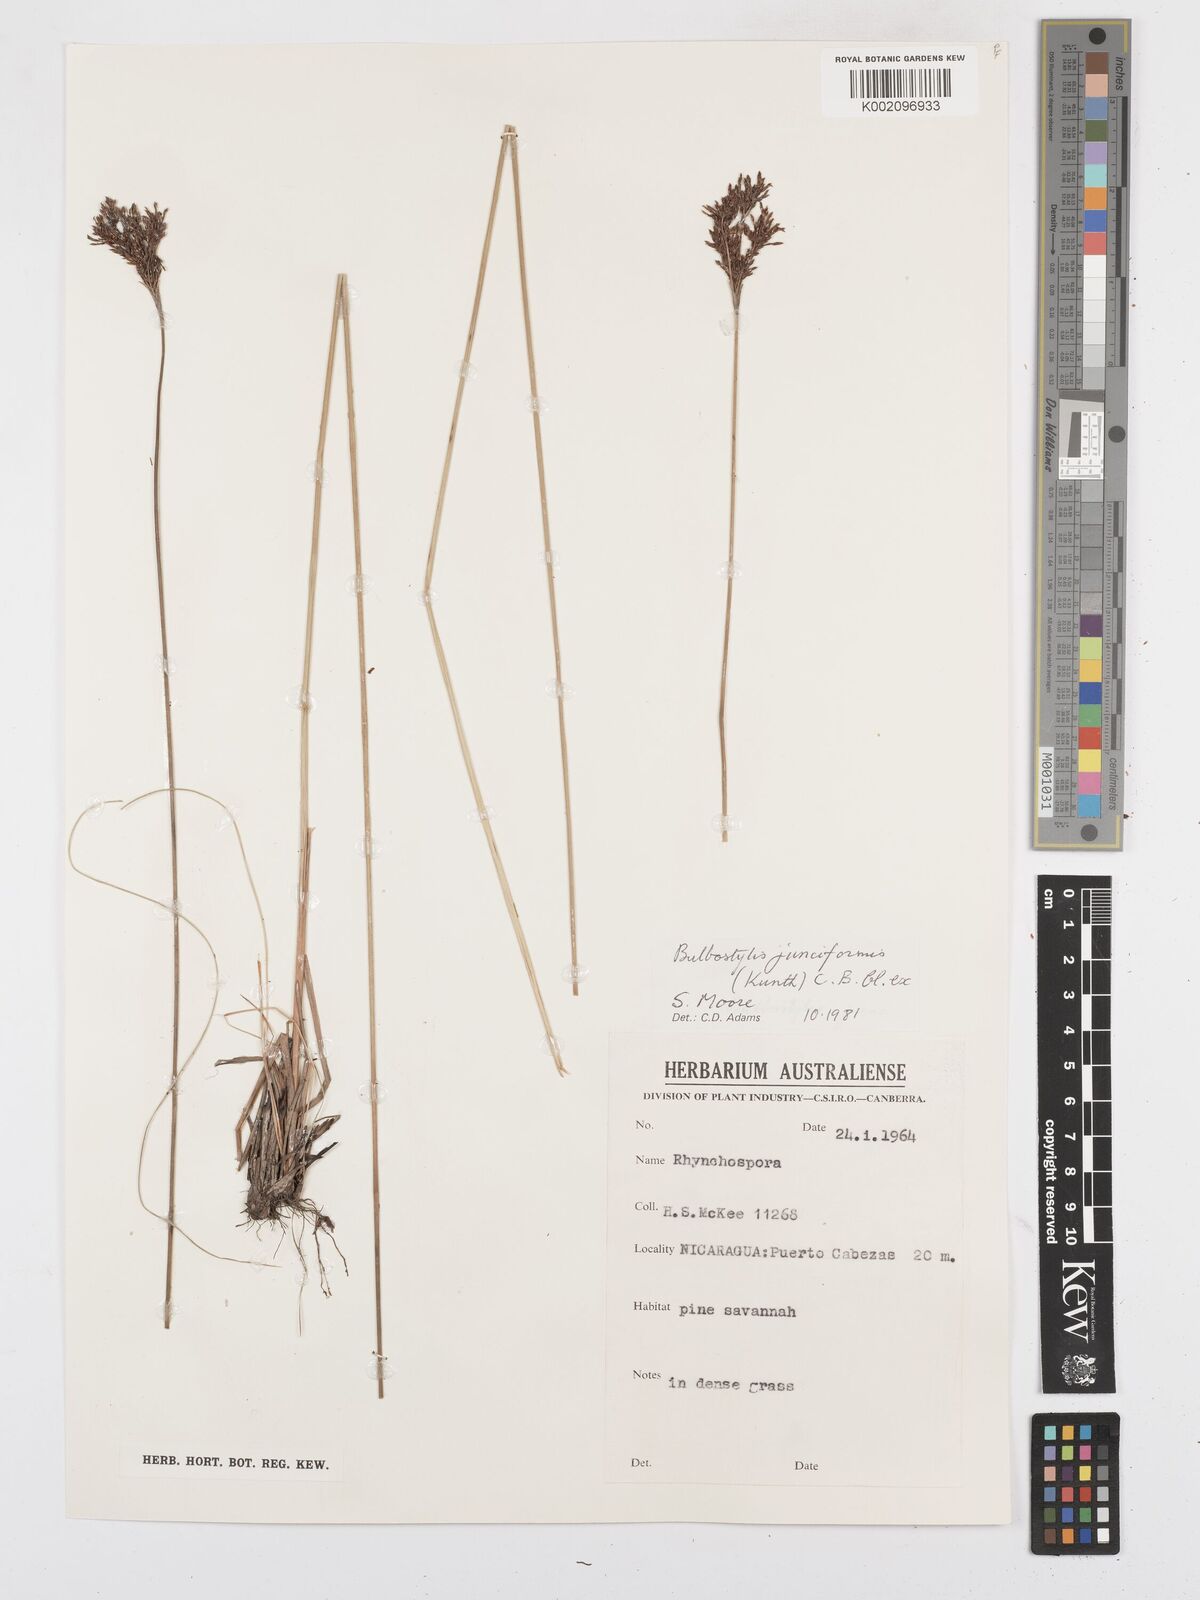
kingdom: Plantae
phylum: Tracheophyta
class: Liliopsida
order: Poales
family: Cyperaceae
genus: Bulbostylis
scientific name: Bulbostylis junciformis
